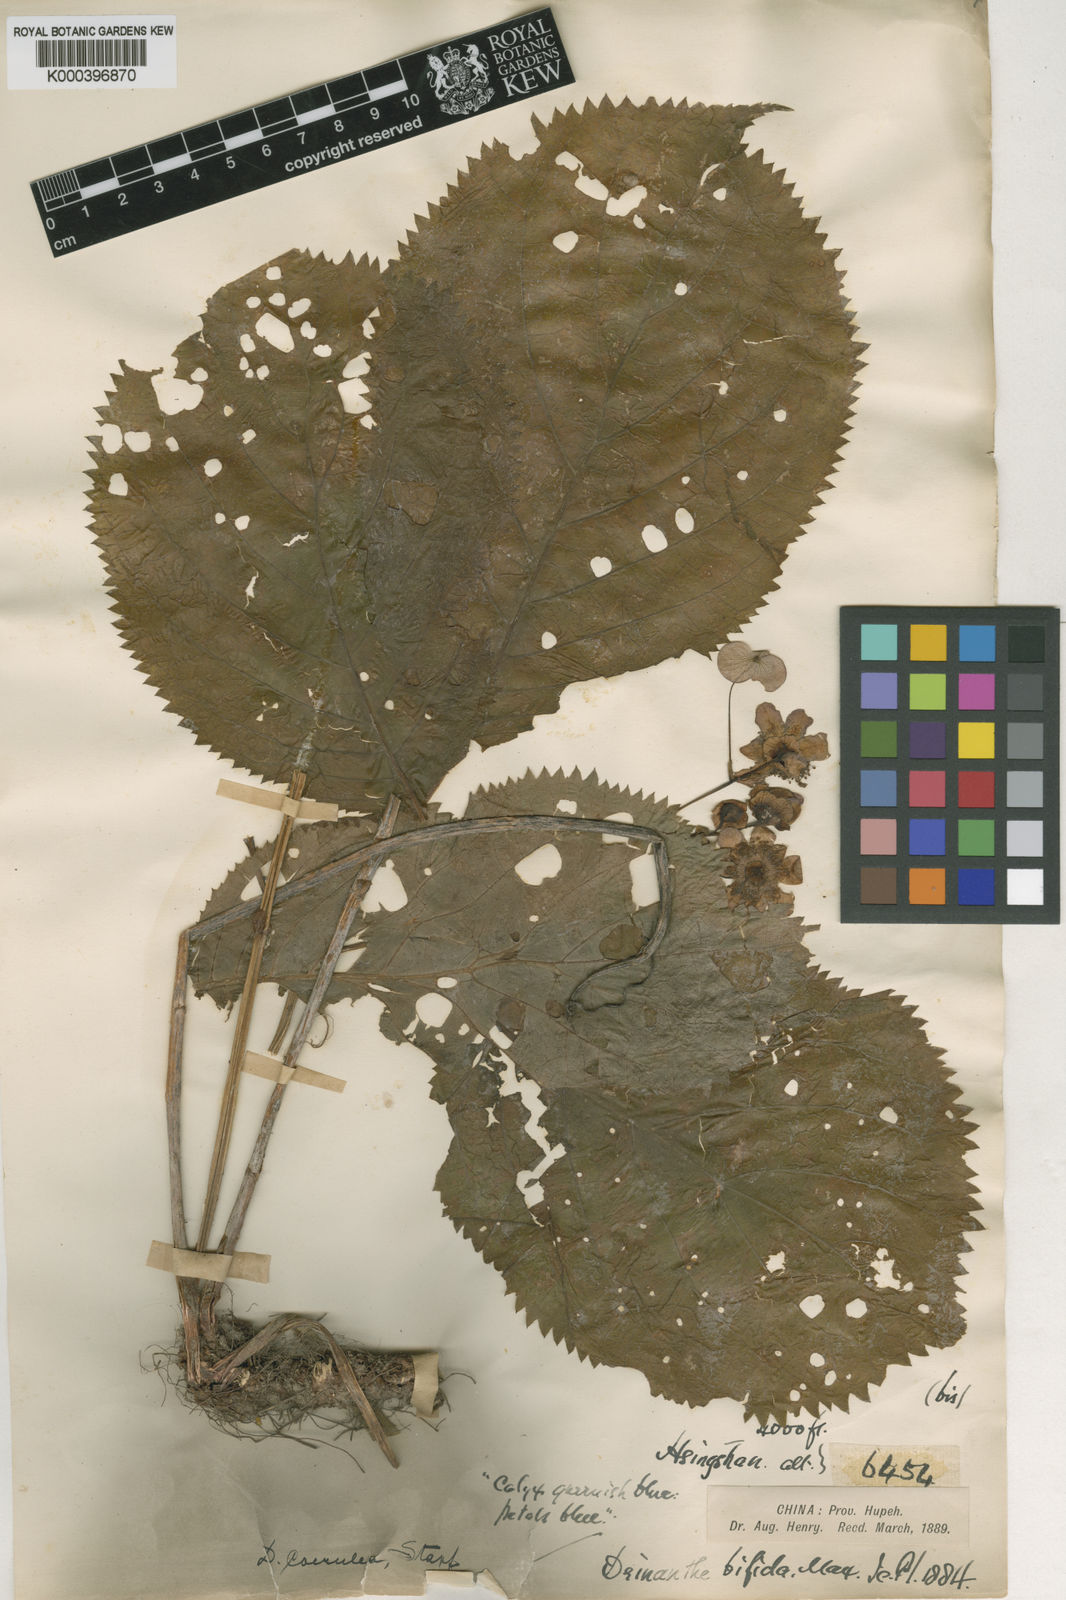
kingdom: Plantae
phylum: Tracheophyta
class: Magnoliopsida
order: Cornales
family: Hydrangeaceae
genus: Hydrangea
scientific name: Hydrangea caerulea
